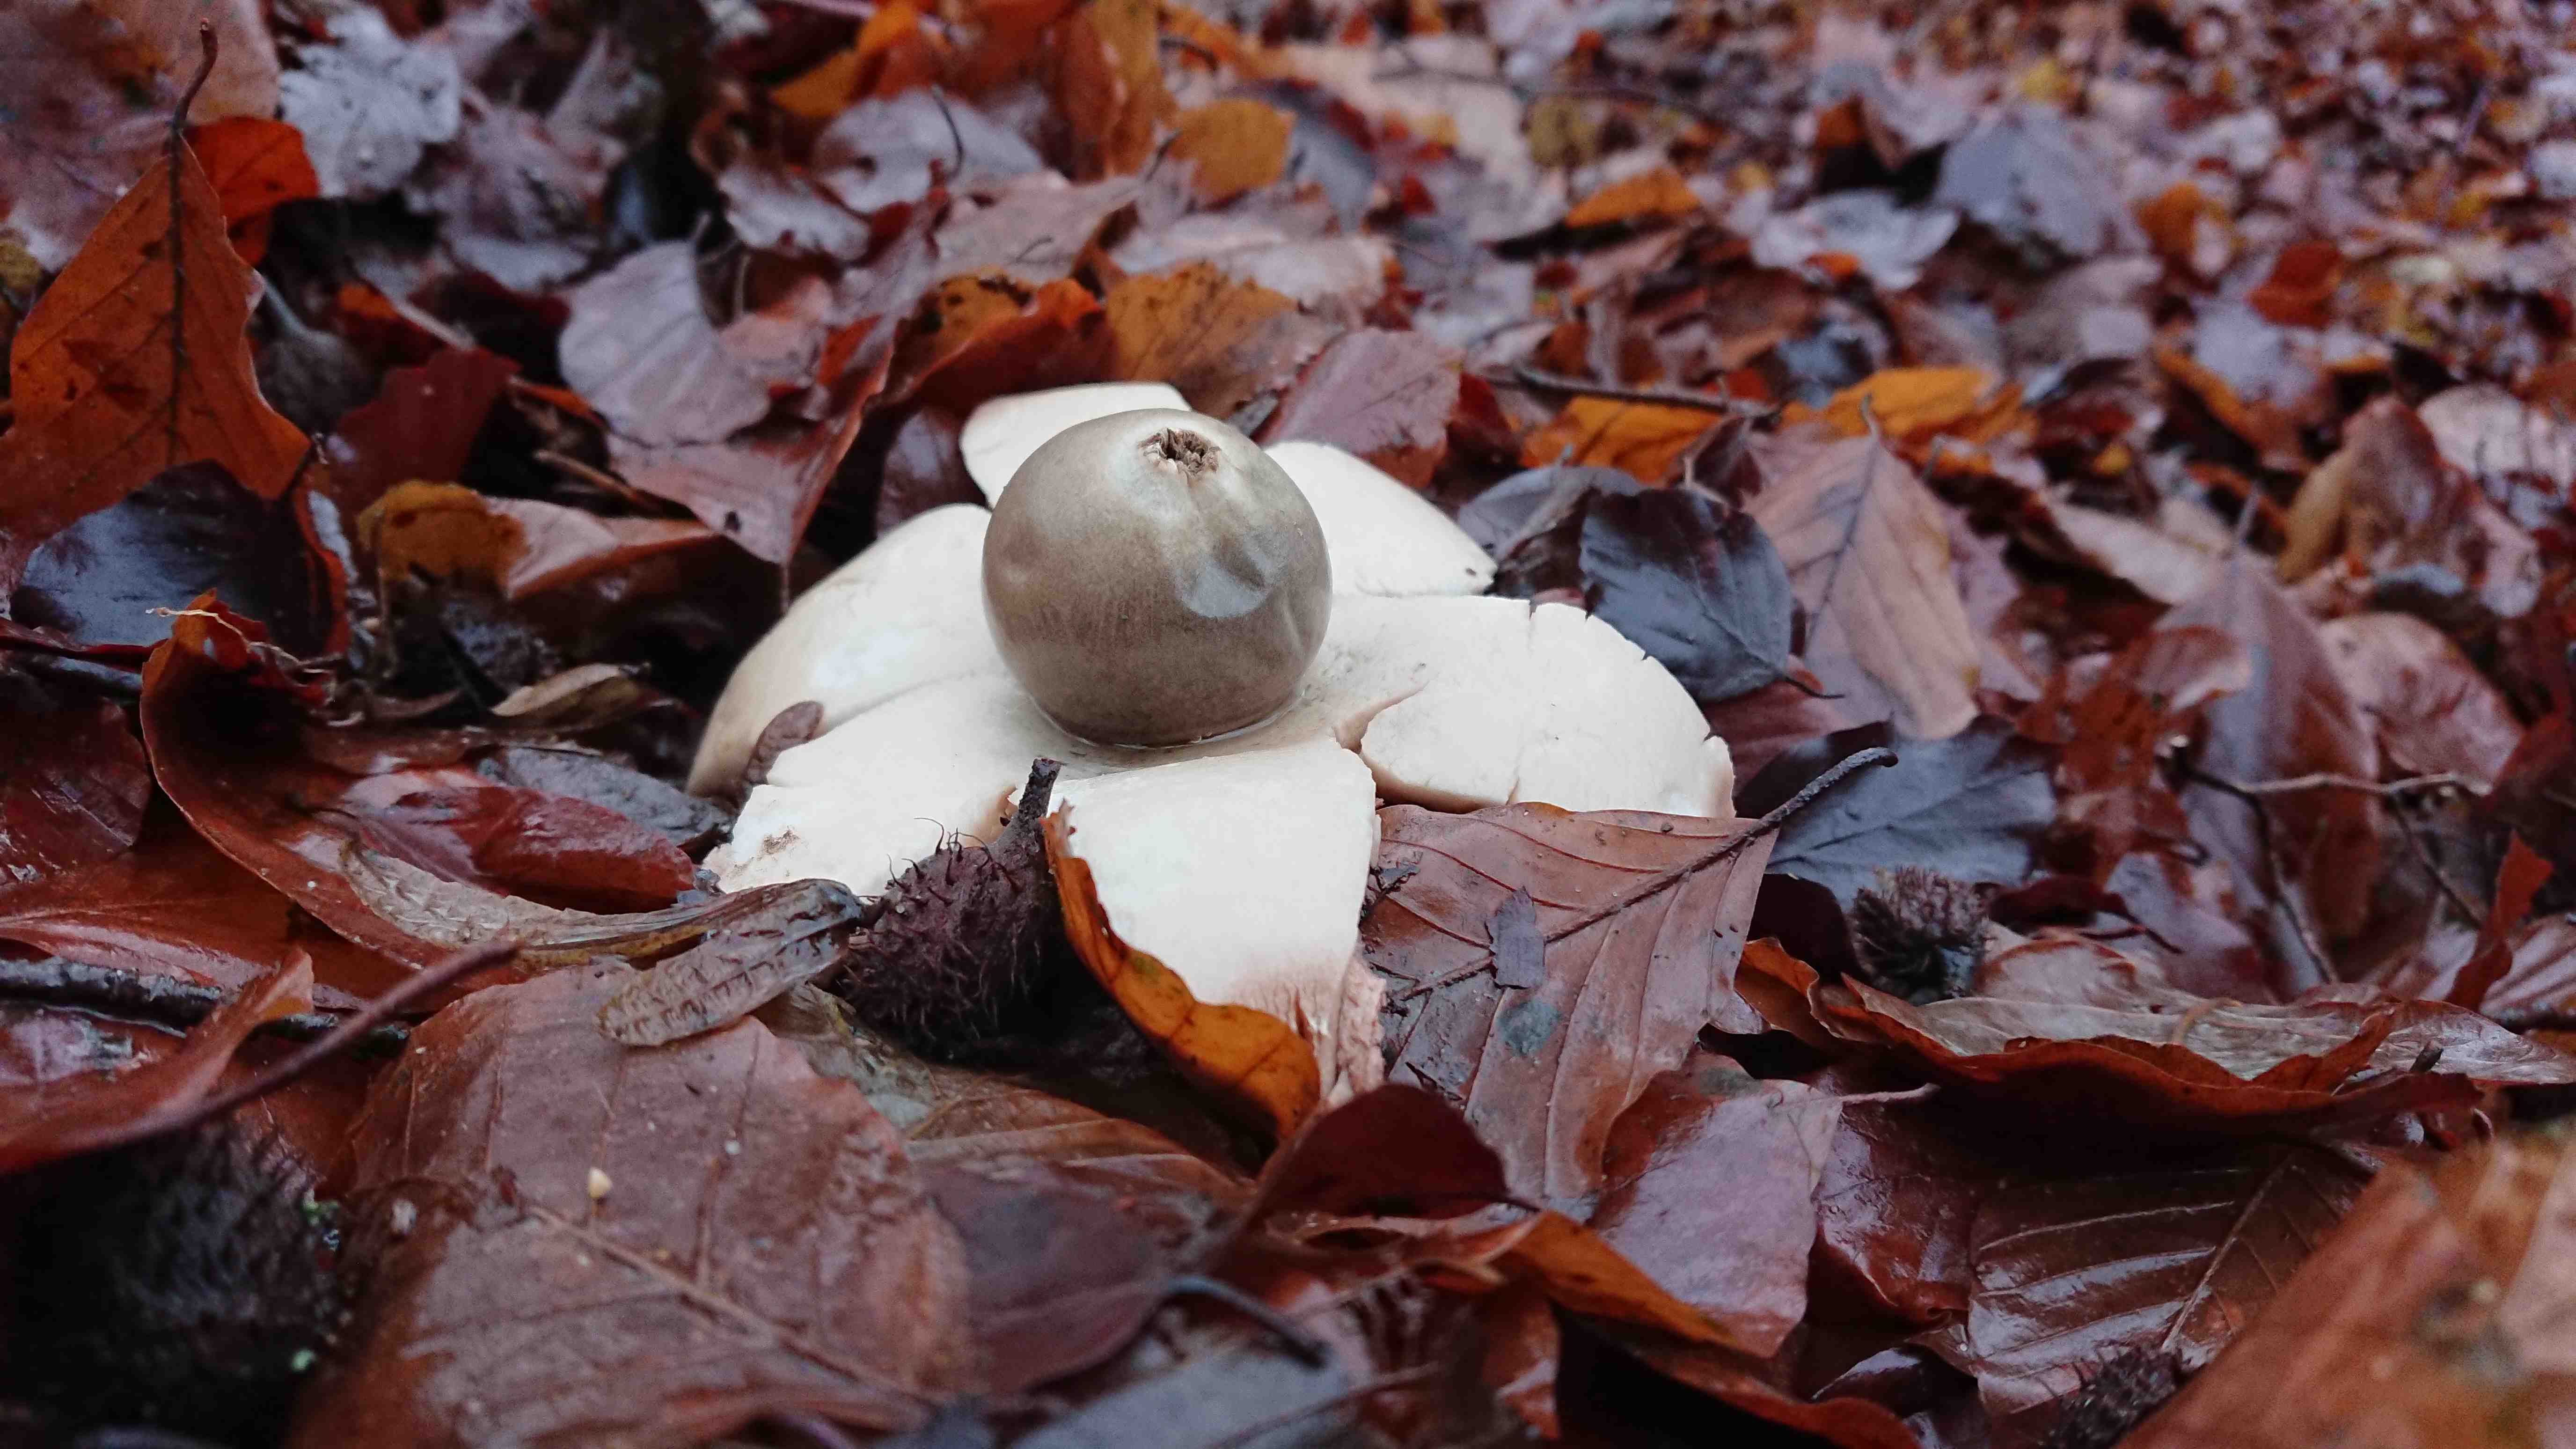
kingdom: Fungi
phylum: Basidiomycota
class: Agaricomycetes
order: Geastrales
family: Geastraceae
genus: Geastrum
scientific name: Geastrum
